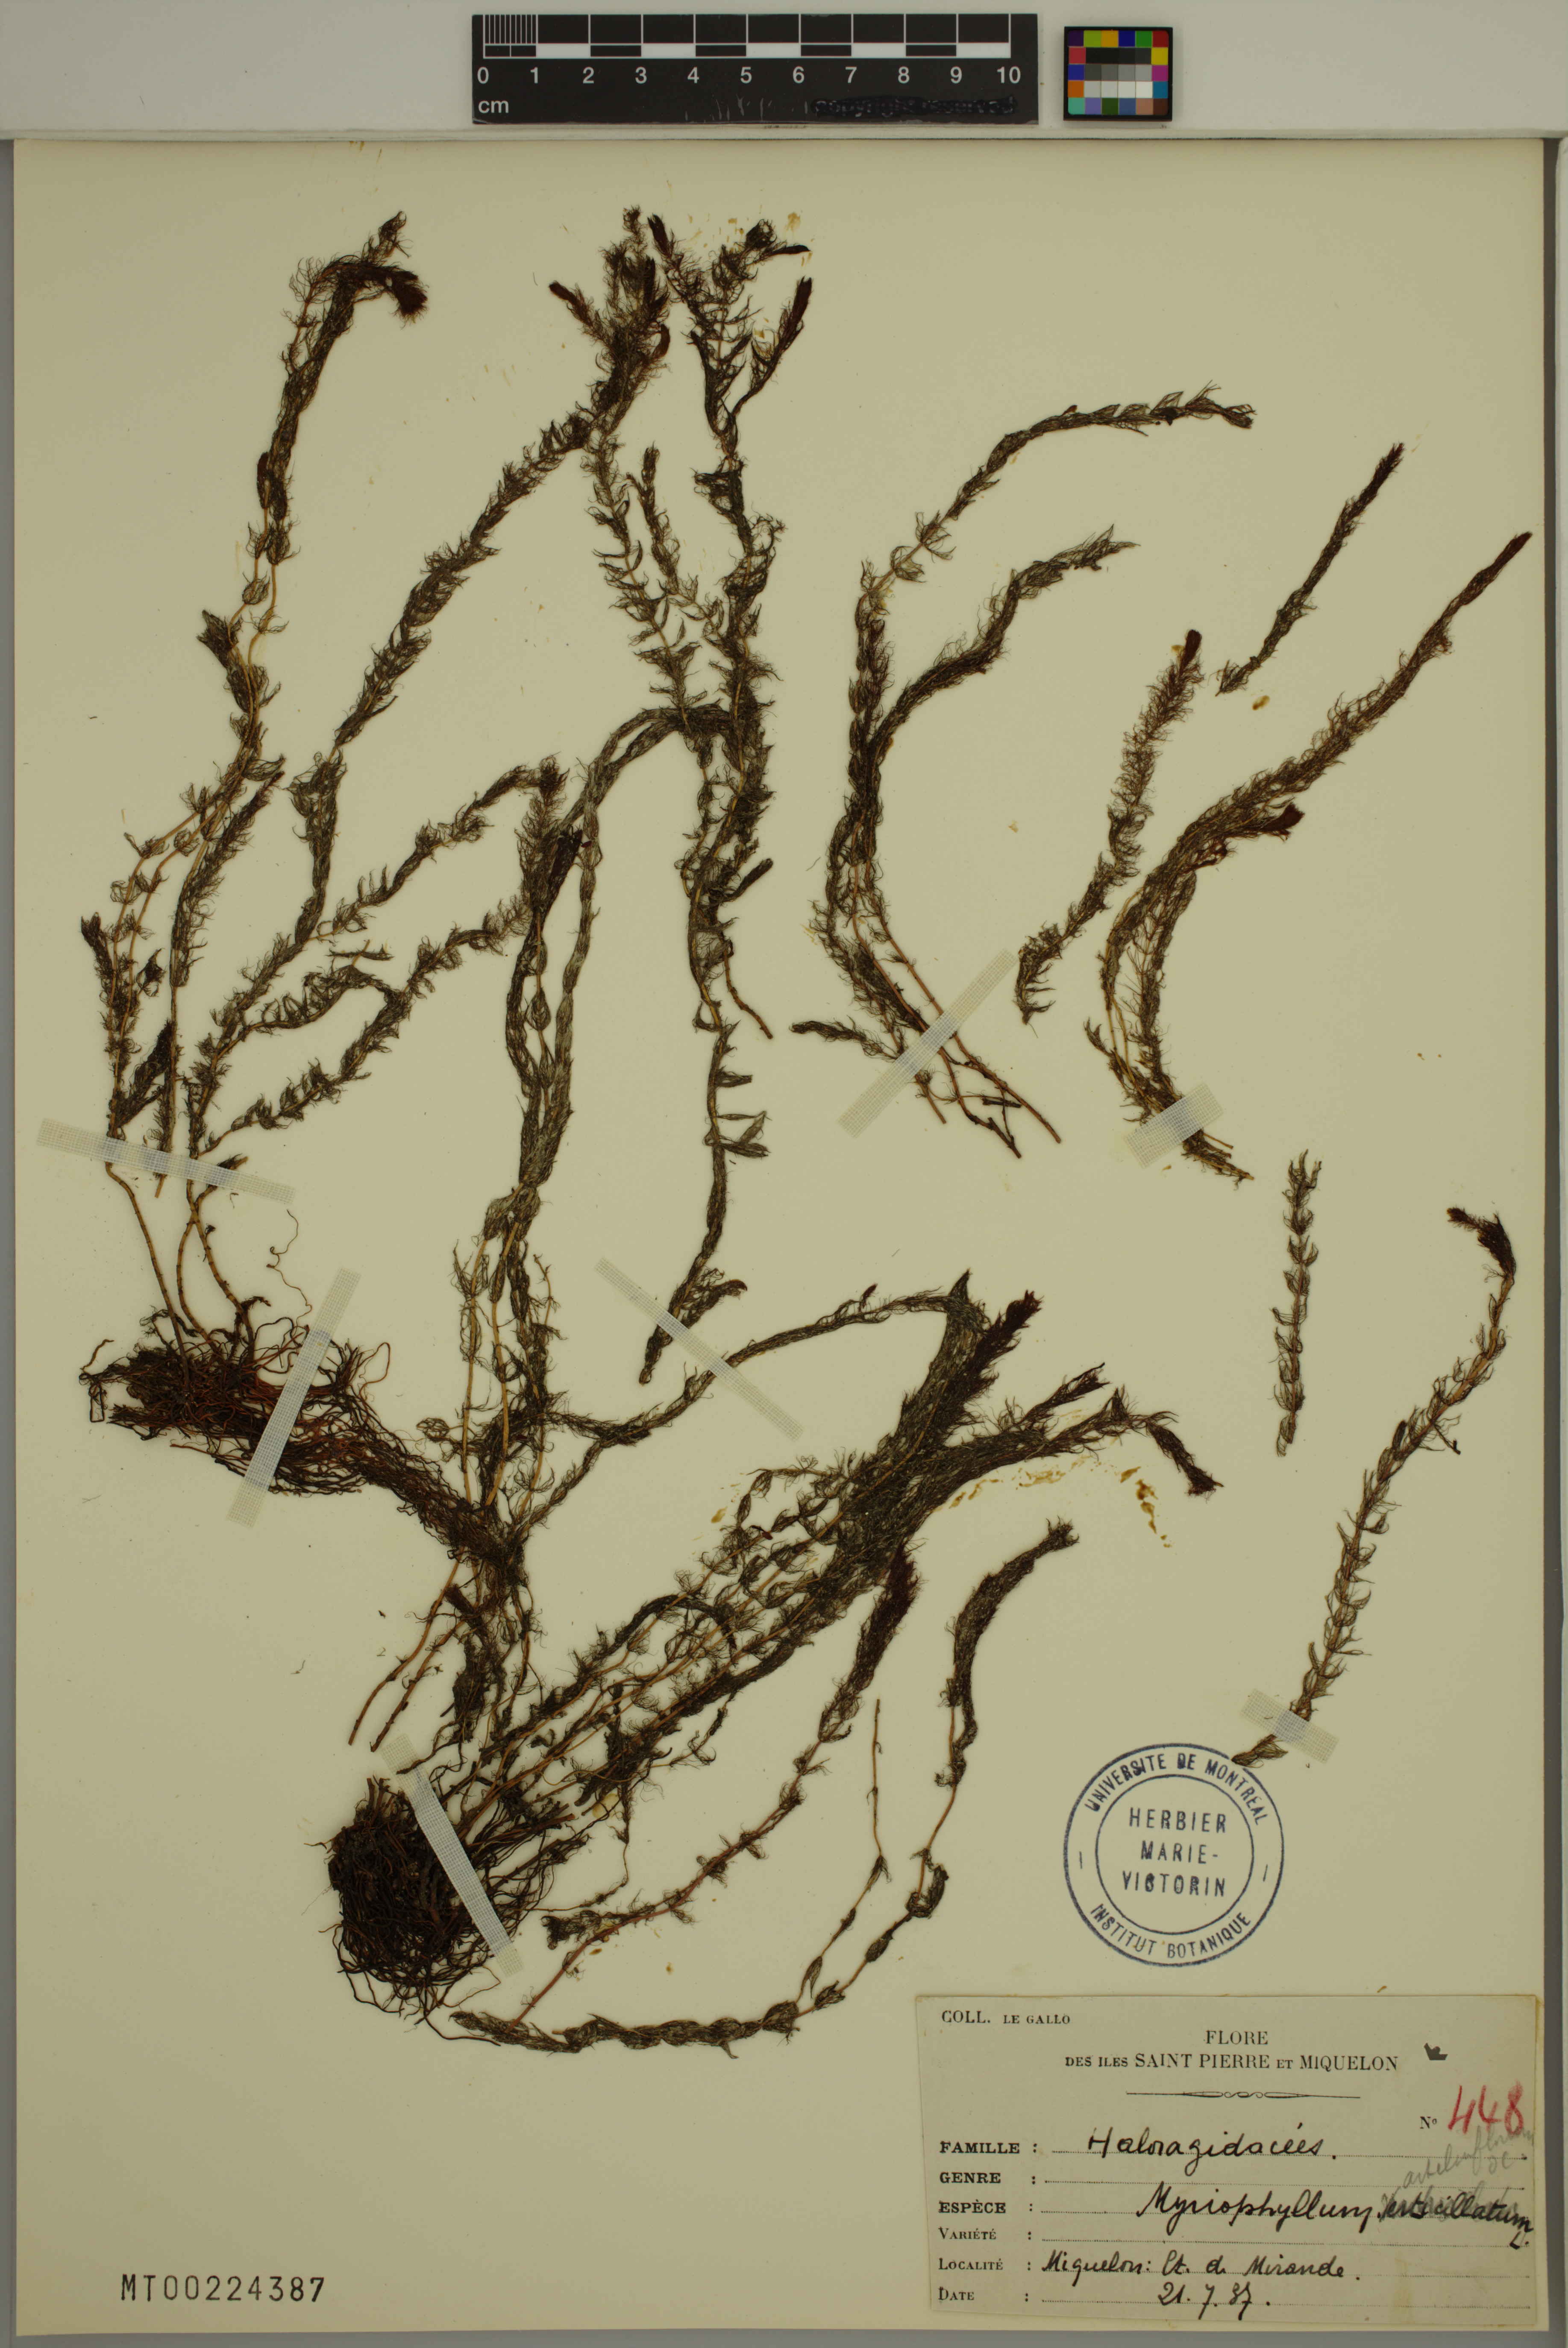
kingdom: Plantae
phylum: Tracheophyta
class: Magnoliopsida
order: Saxifragales
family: Haloragaceae
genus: Myriophyllum
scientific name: Myriophyllum alterniflorum
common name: Alternate water-milfoil
